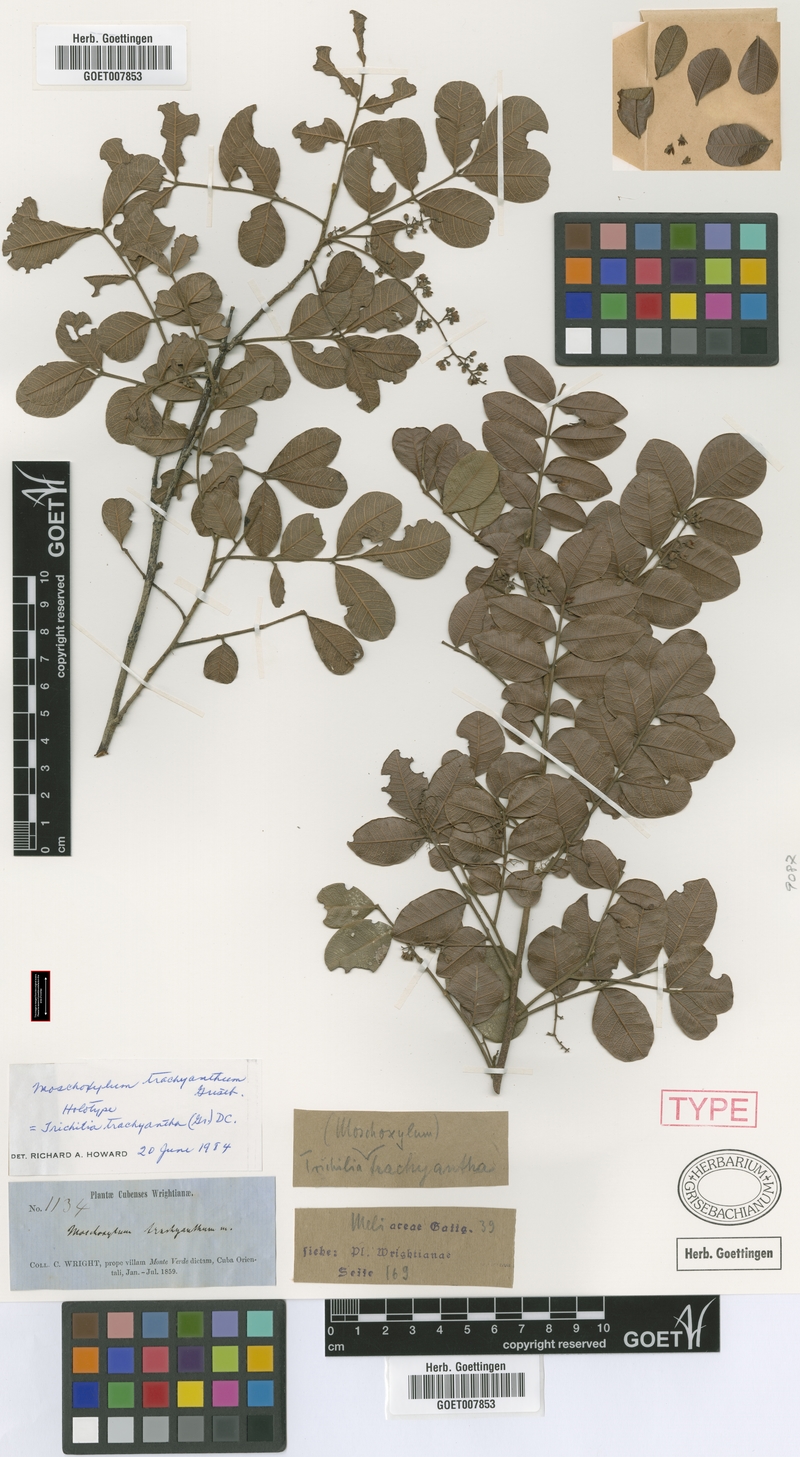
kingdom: Plantae
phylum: Tracheophyta
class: Magnoliopsida
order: Sapindales
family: Meliaceae
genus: Trichilia
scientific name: Trichilia trachyantha
